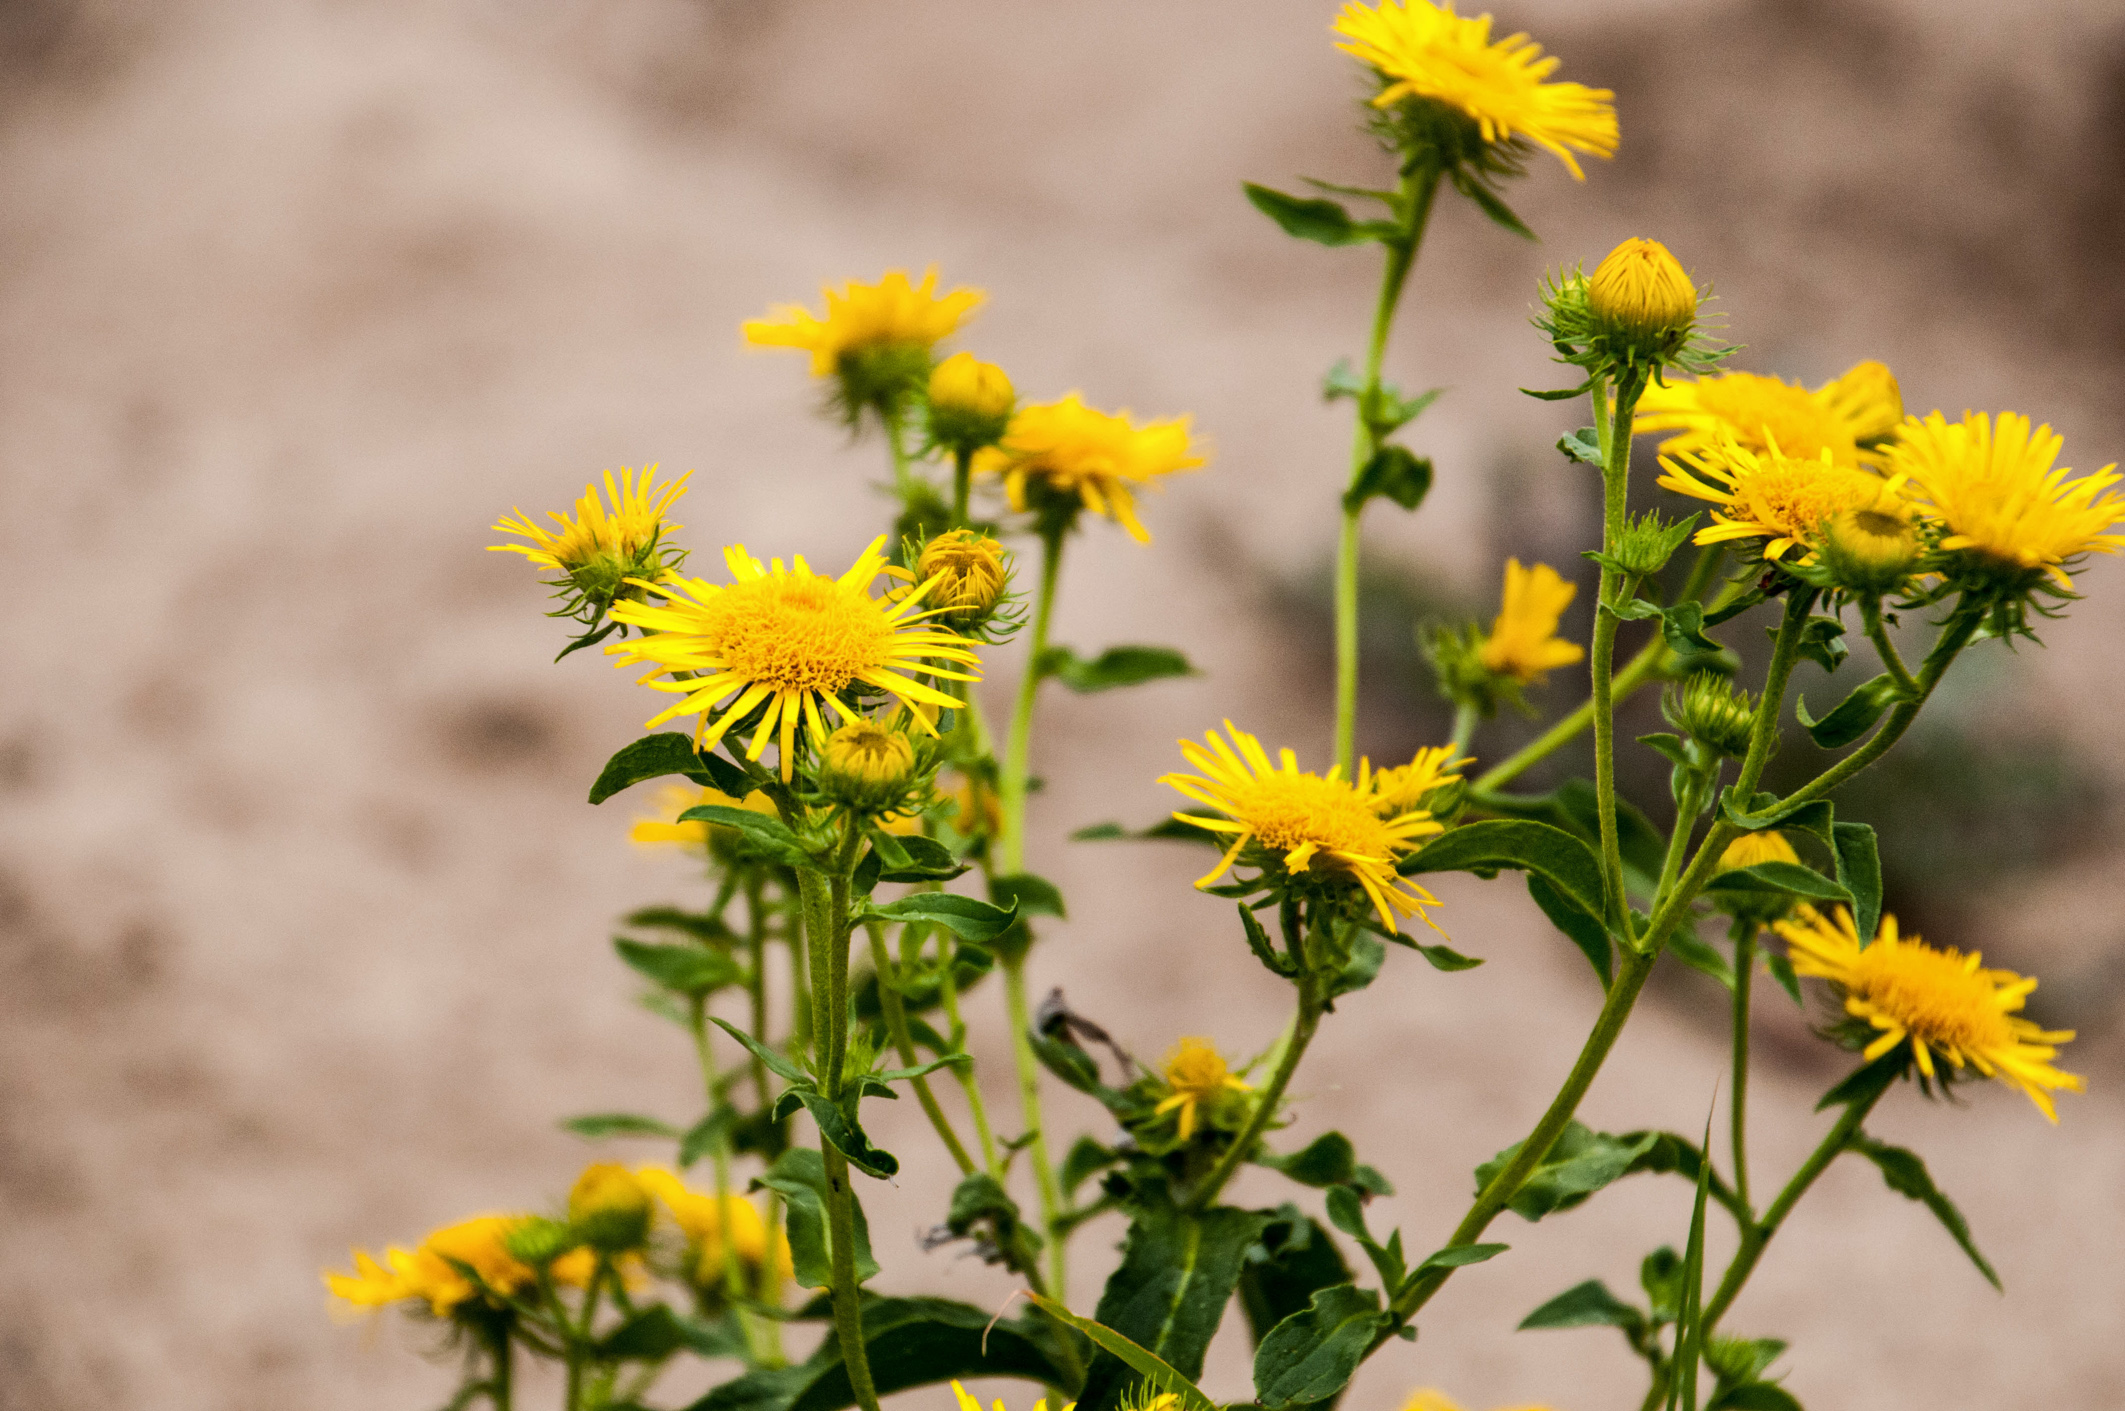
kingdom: Plantae
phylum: Tracheophyta
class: Magnoliopsida
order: Asterales
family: Asteraceae
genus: Inula
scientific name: Inula britannica
